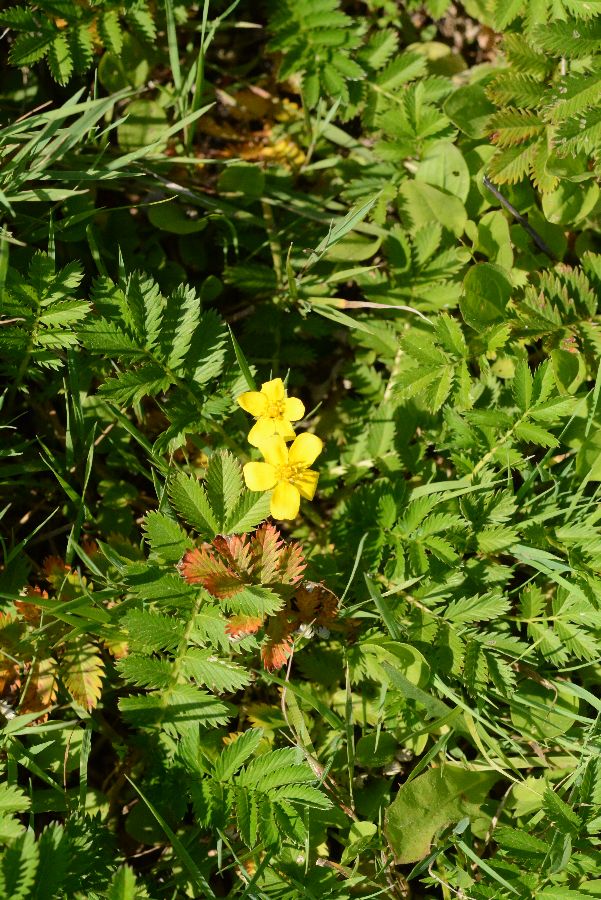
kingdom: Plantae
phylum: Tracheophyta
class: Magnoliopsida
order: Rosales
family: Rosaceae
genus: Argentina
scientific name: Argentina anserina
